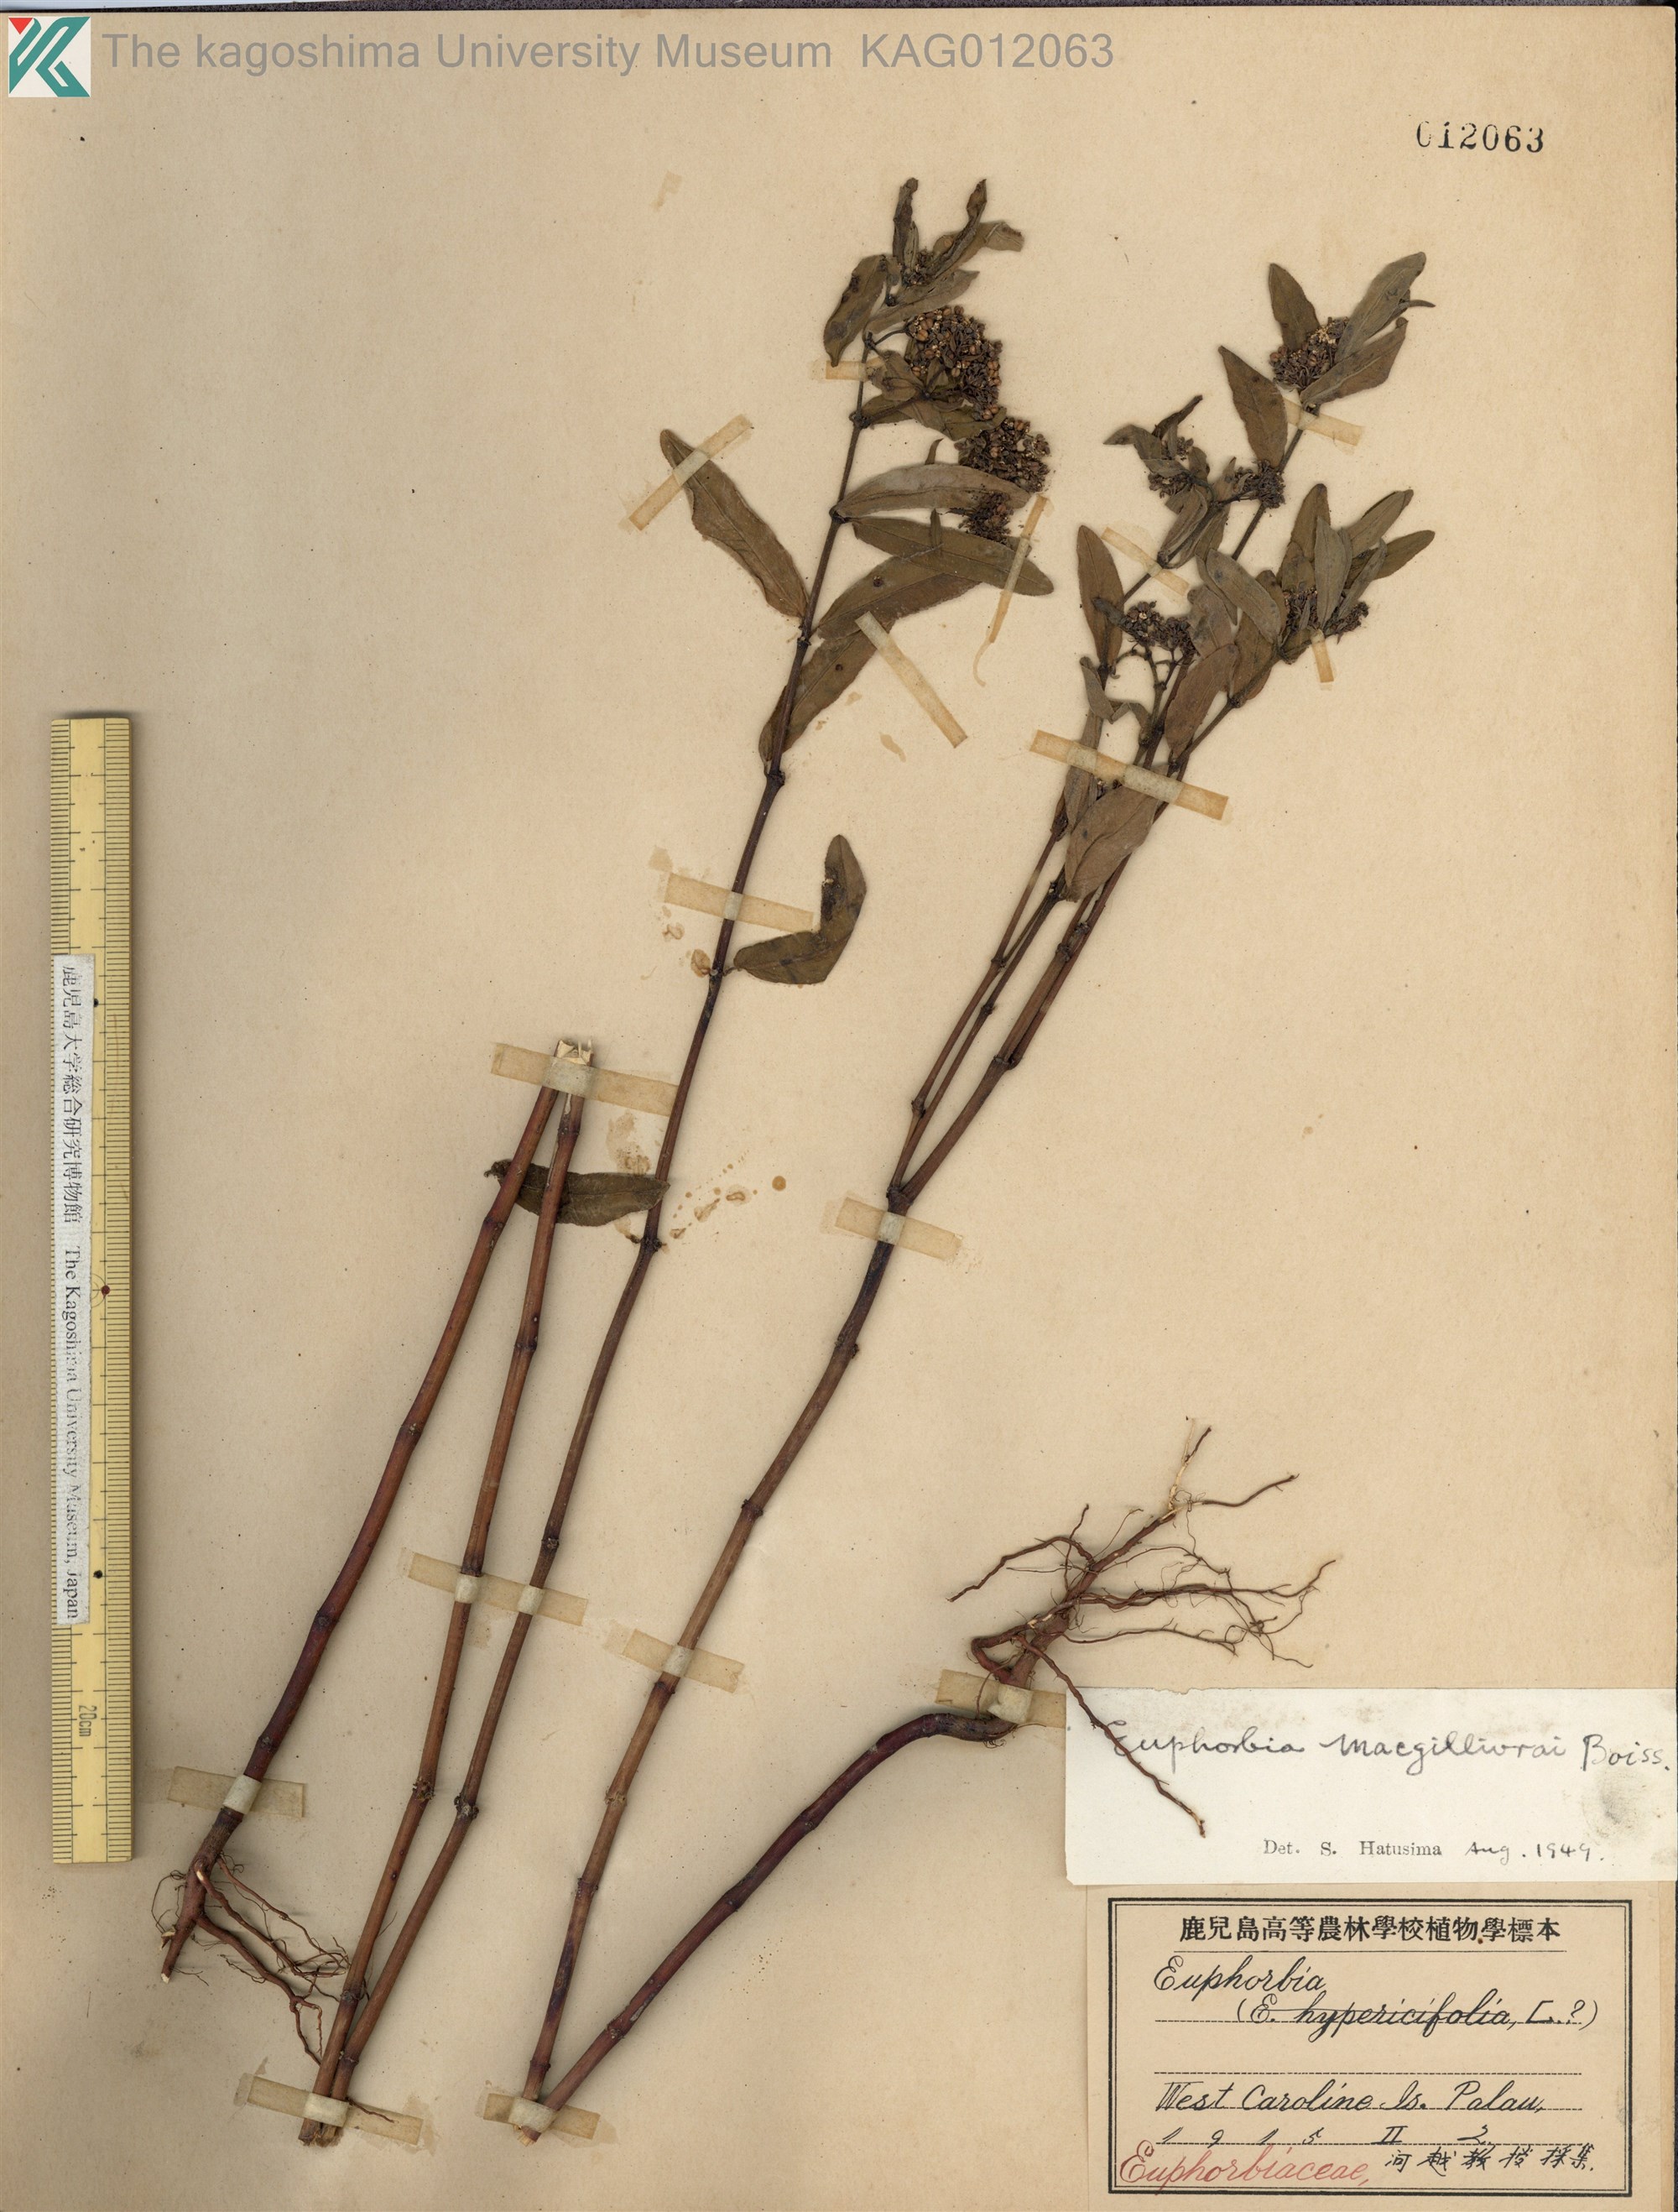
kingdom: Plantae
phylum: Tracheophyta
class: Magnoliopsida
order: Malpighiales
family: Euphorbiaceae
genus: Euphorbia
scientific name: Euphorbia bifida
